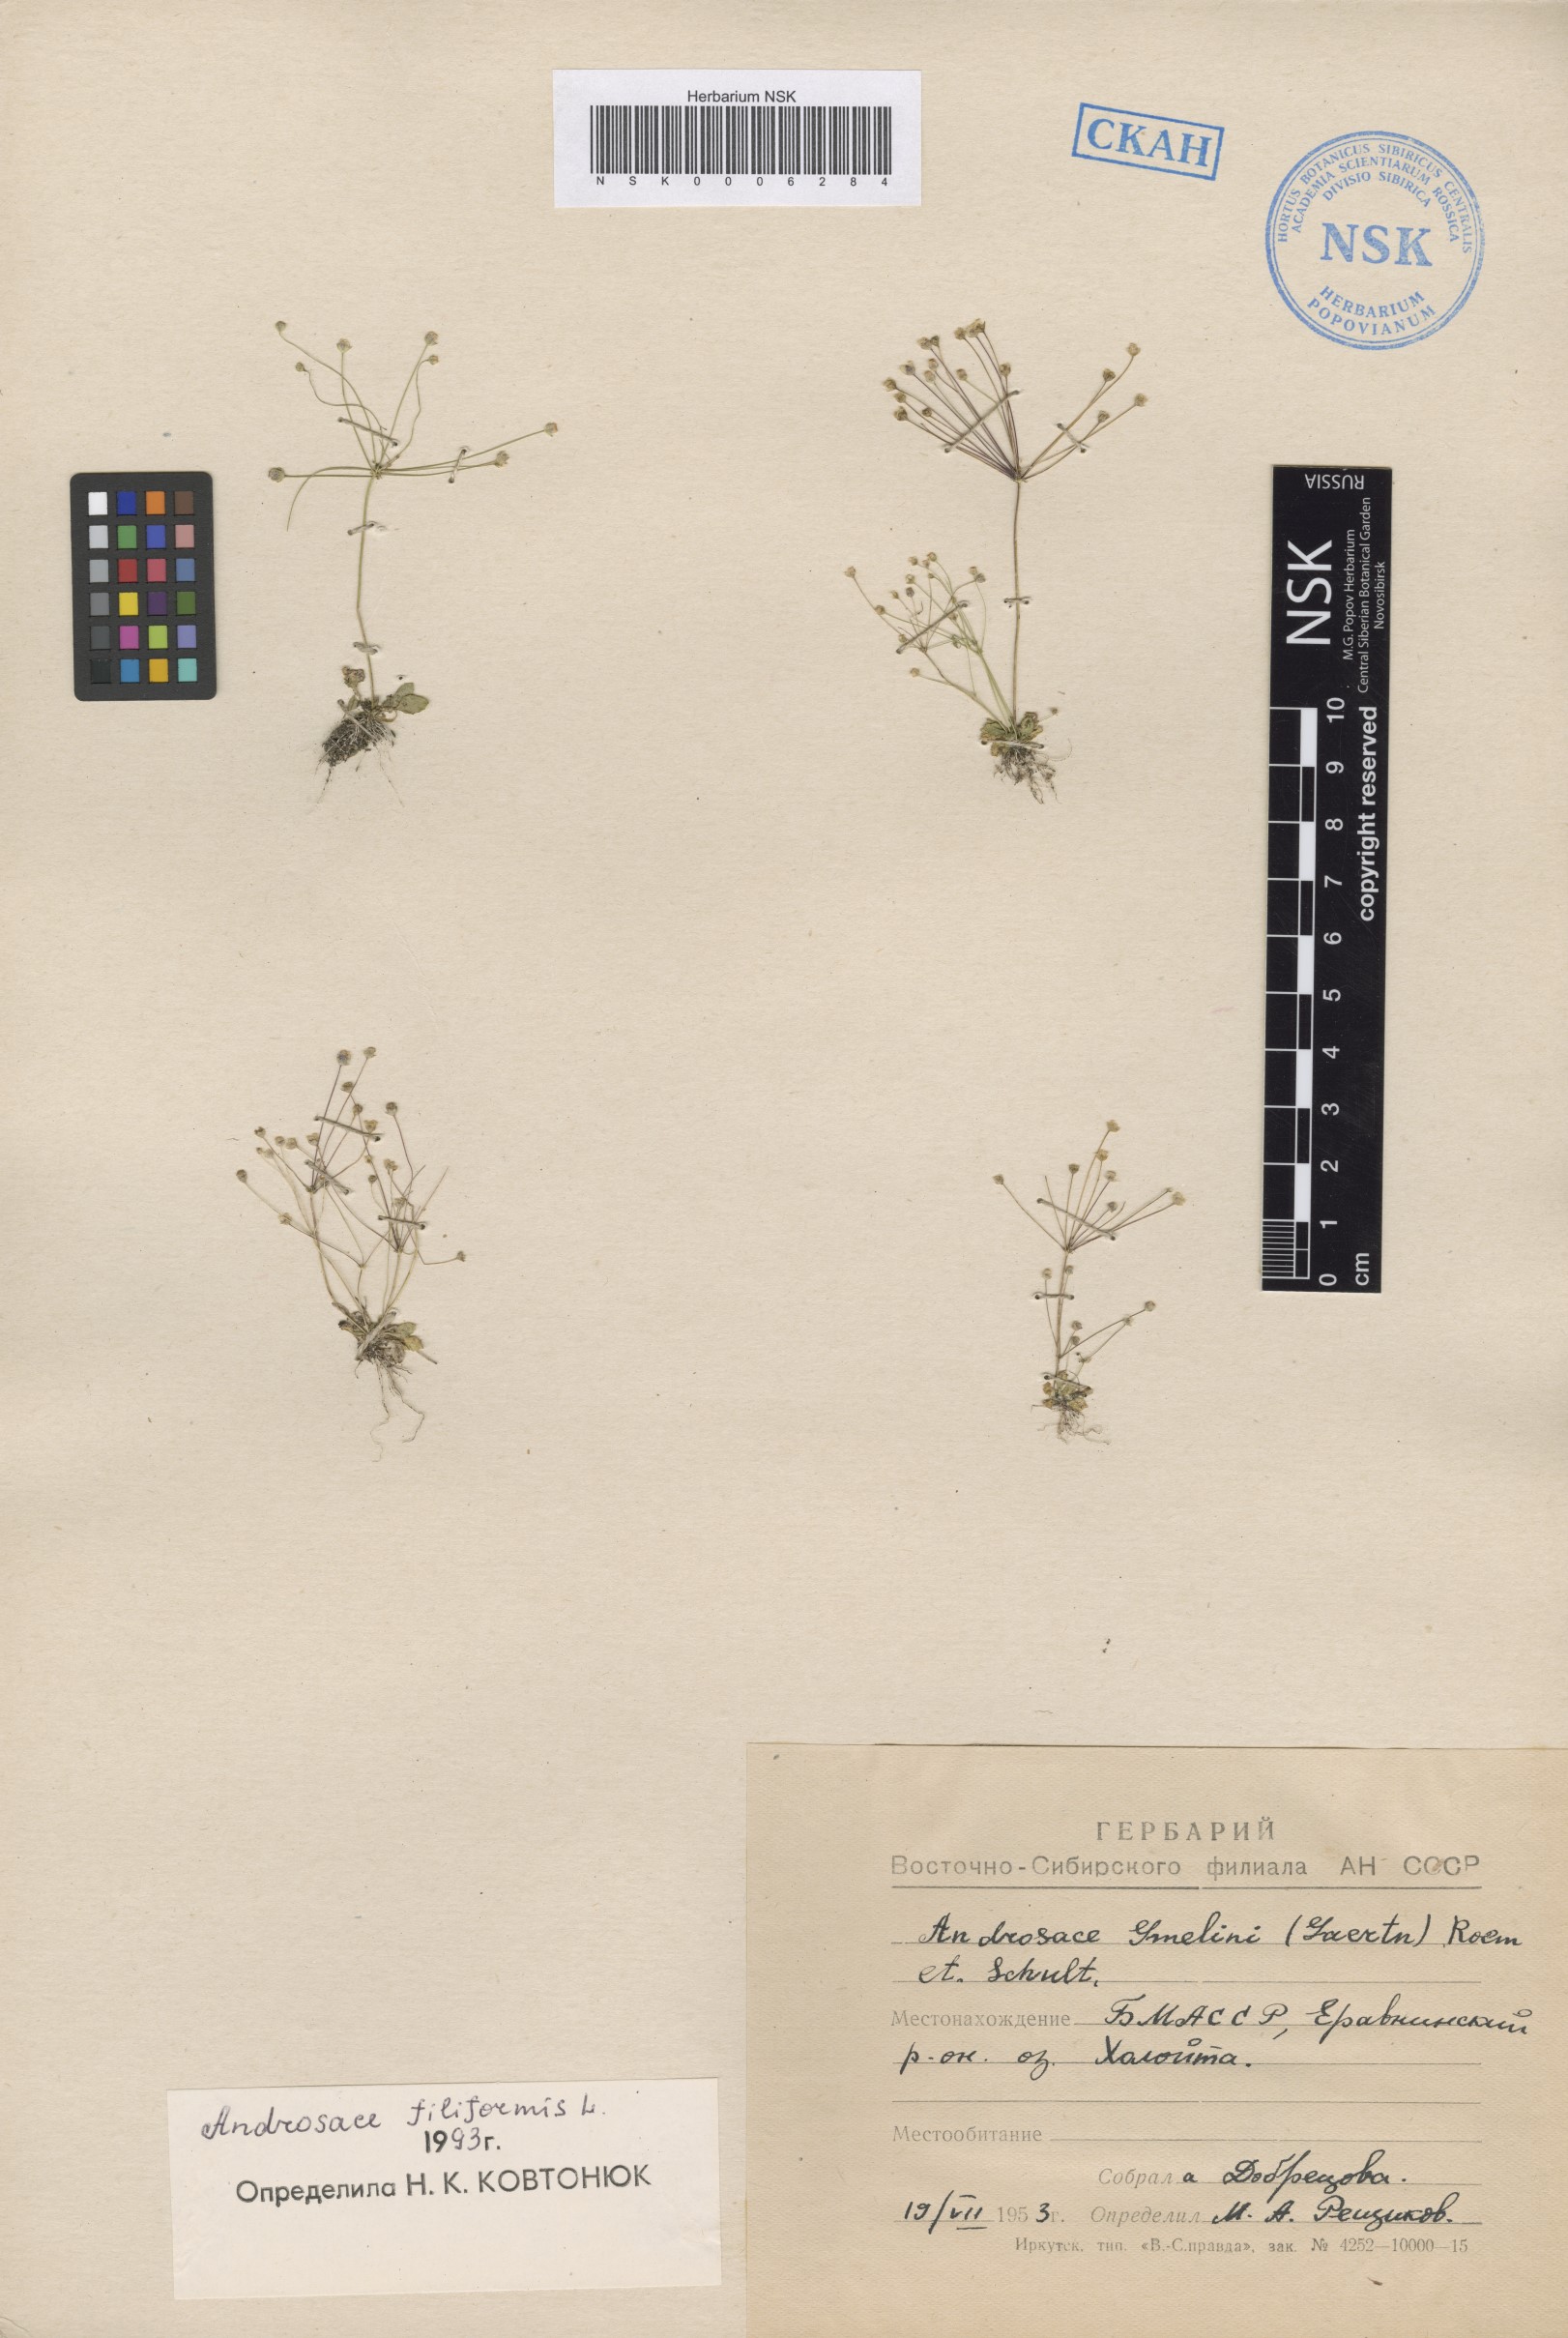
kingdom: Plantae
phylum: Tracheophyta
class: Magnoliopsida
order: Ericales
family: Primulaceae
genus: Androsace
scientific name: Androsace filiformis
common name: Filiform rock jasmine
